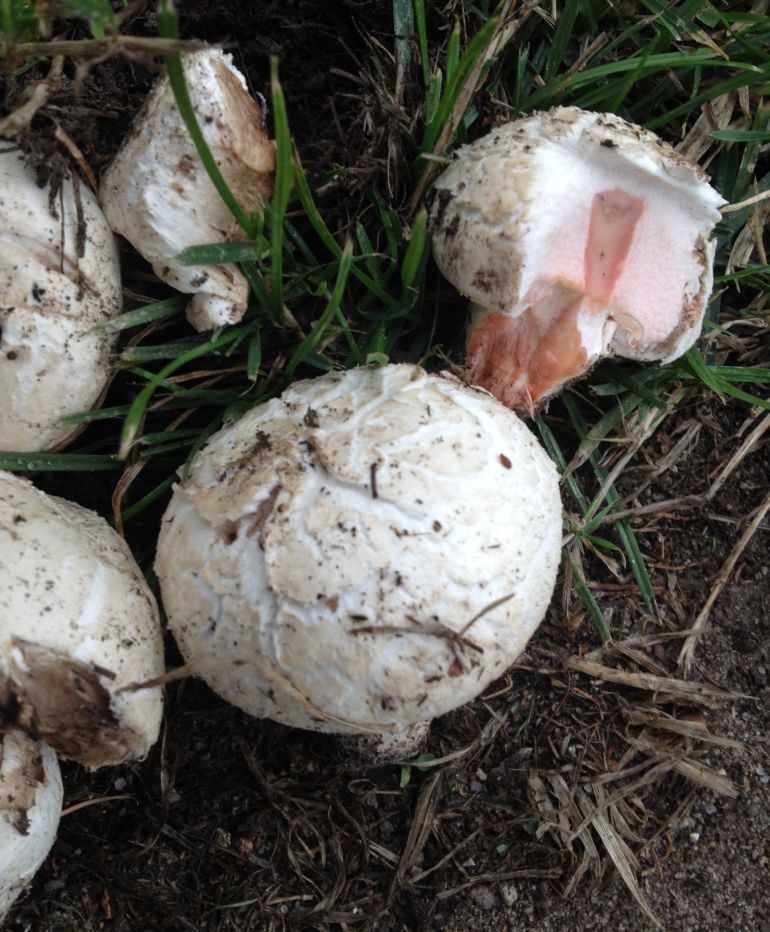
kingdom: Fungi
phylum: Basidiomycota
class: Agaricomycetes
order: Agaricales
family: Agaricaceae
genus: Agaricus
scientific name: Agaricus bernardii
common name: strandengs-champignon
